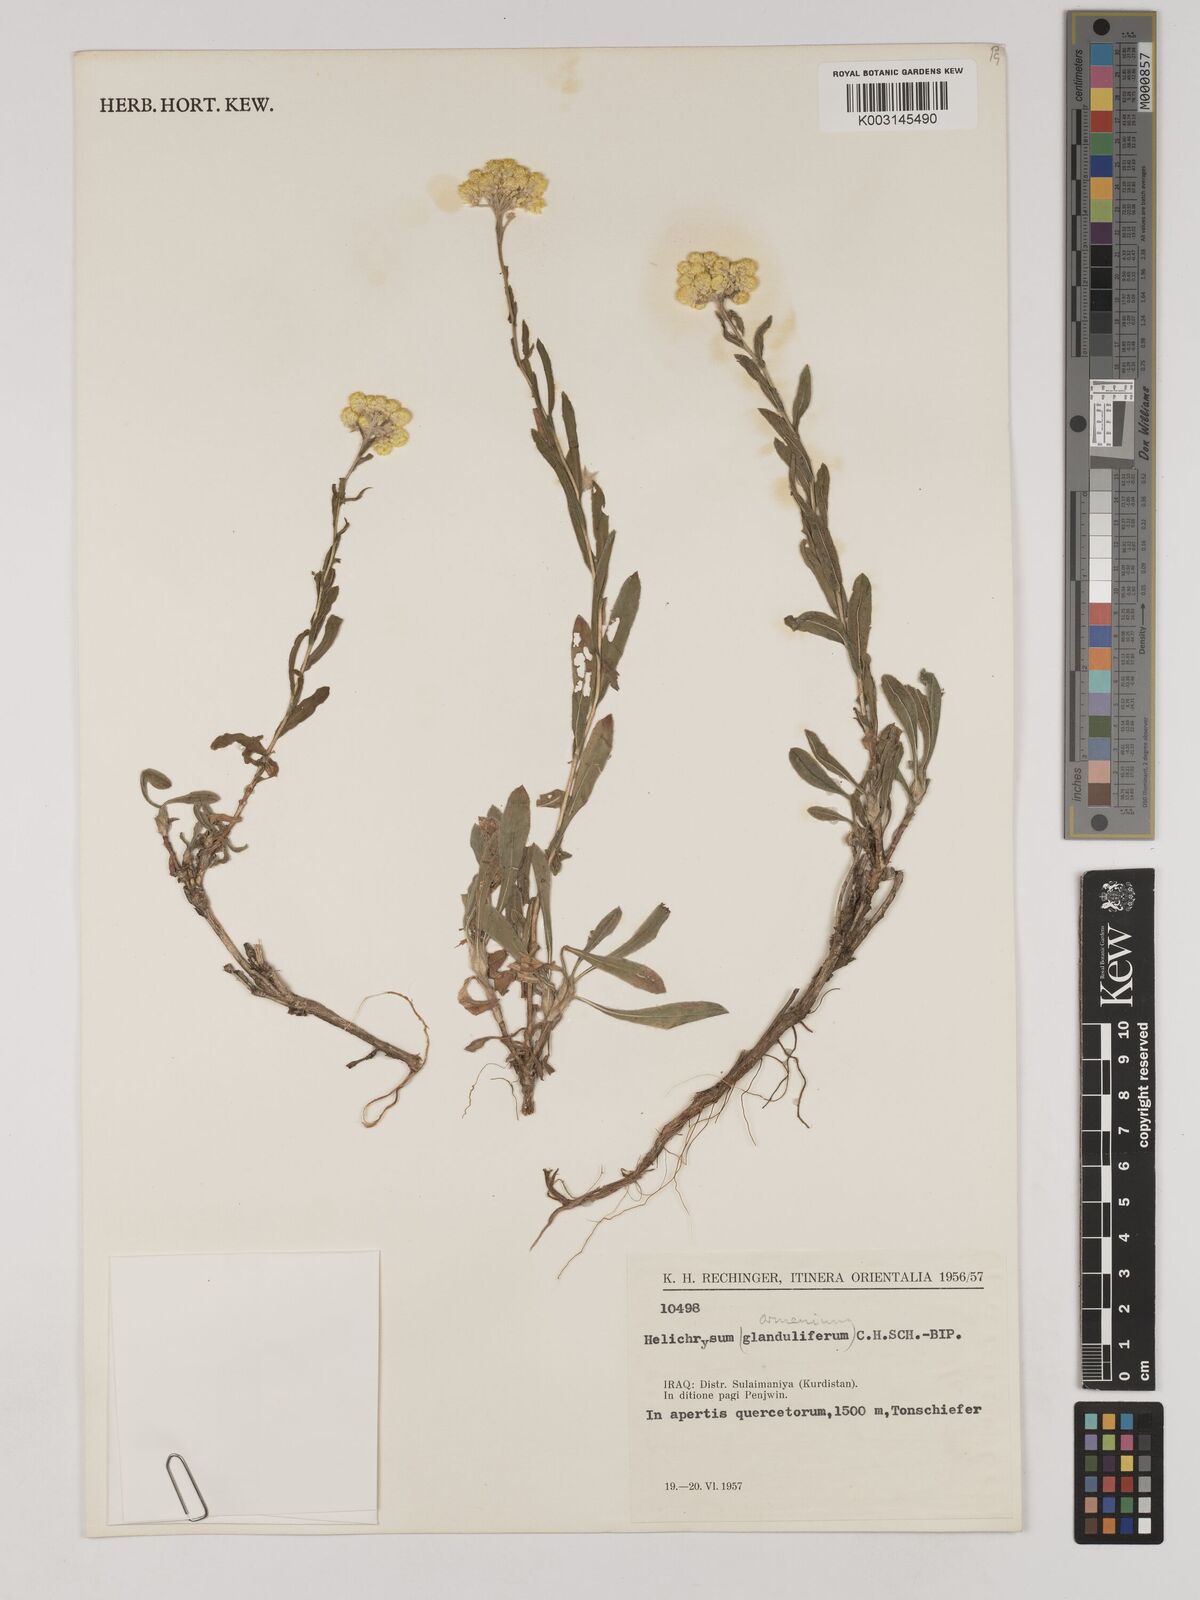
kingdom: Plantae
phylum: Tracheophyta
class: Magnoliopsida
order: Asterales
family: Asteraceae
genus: Helichrysum
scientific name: Helichrysum armenium
